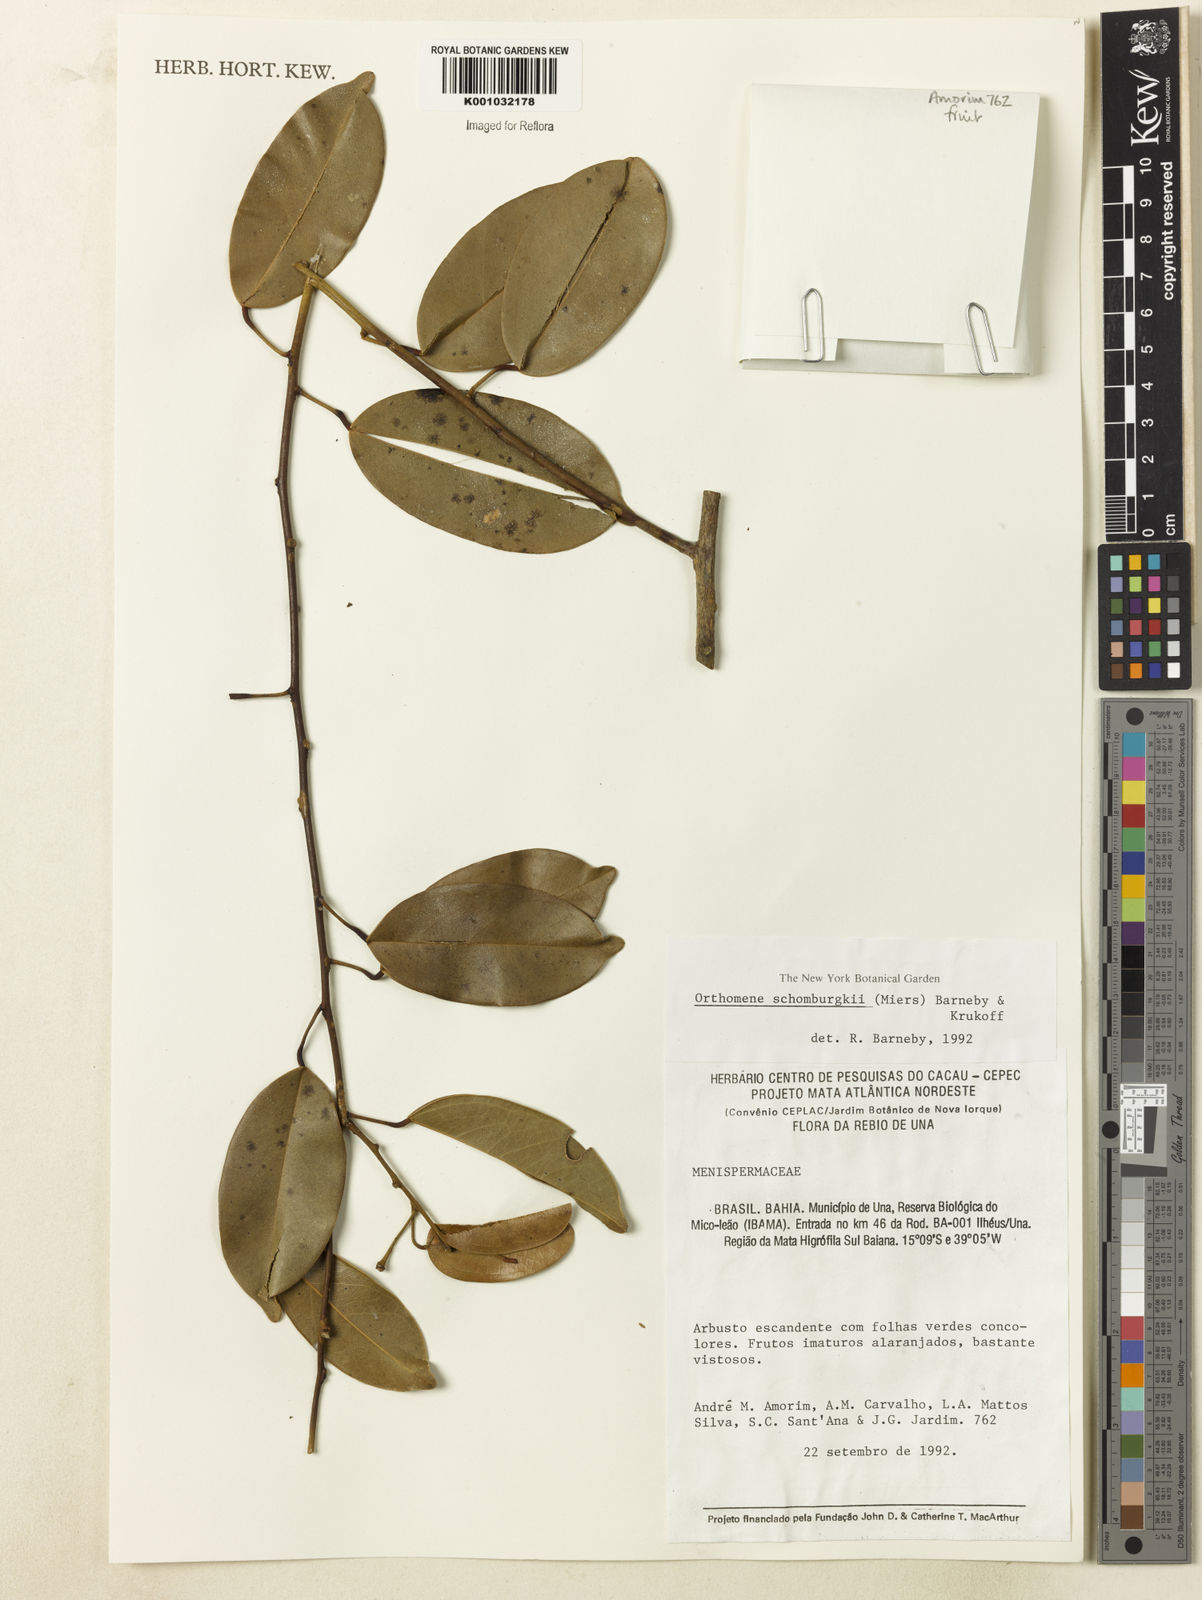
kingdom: Plantae
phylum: Tracheophyta
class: Magnoliopsida
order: Ranunculales
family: Menispermaceae
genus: Orthomene
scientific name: Orthomene schomburgkii
